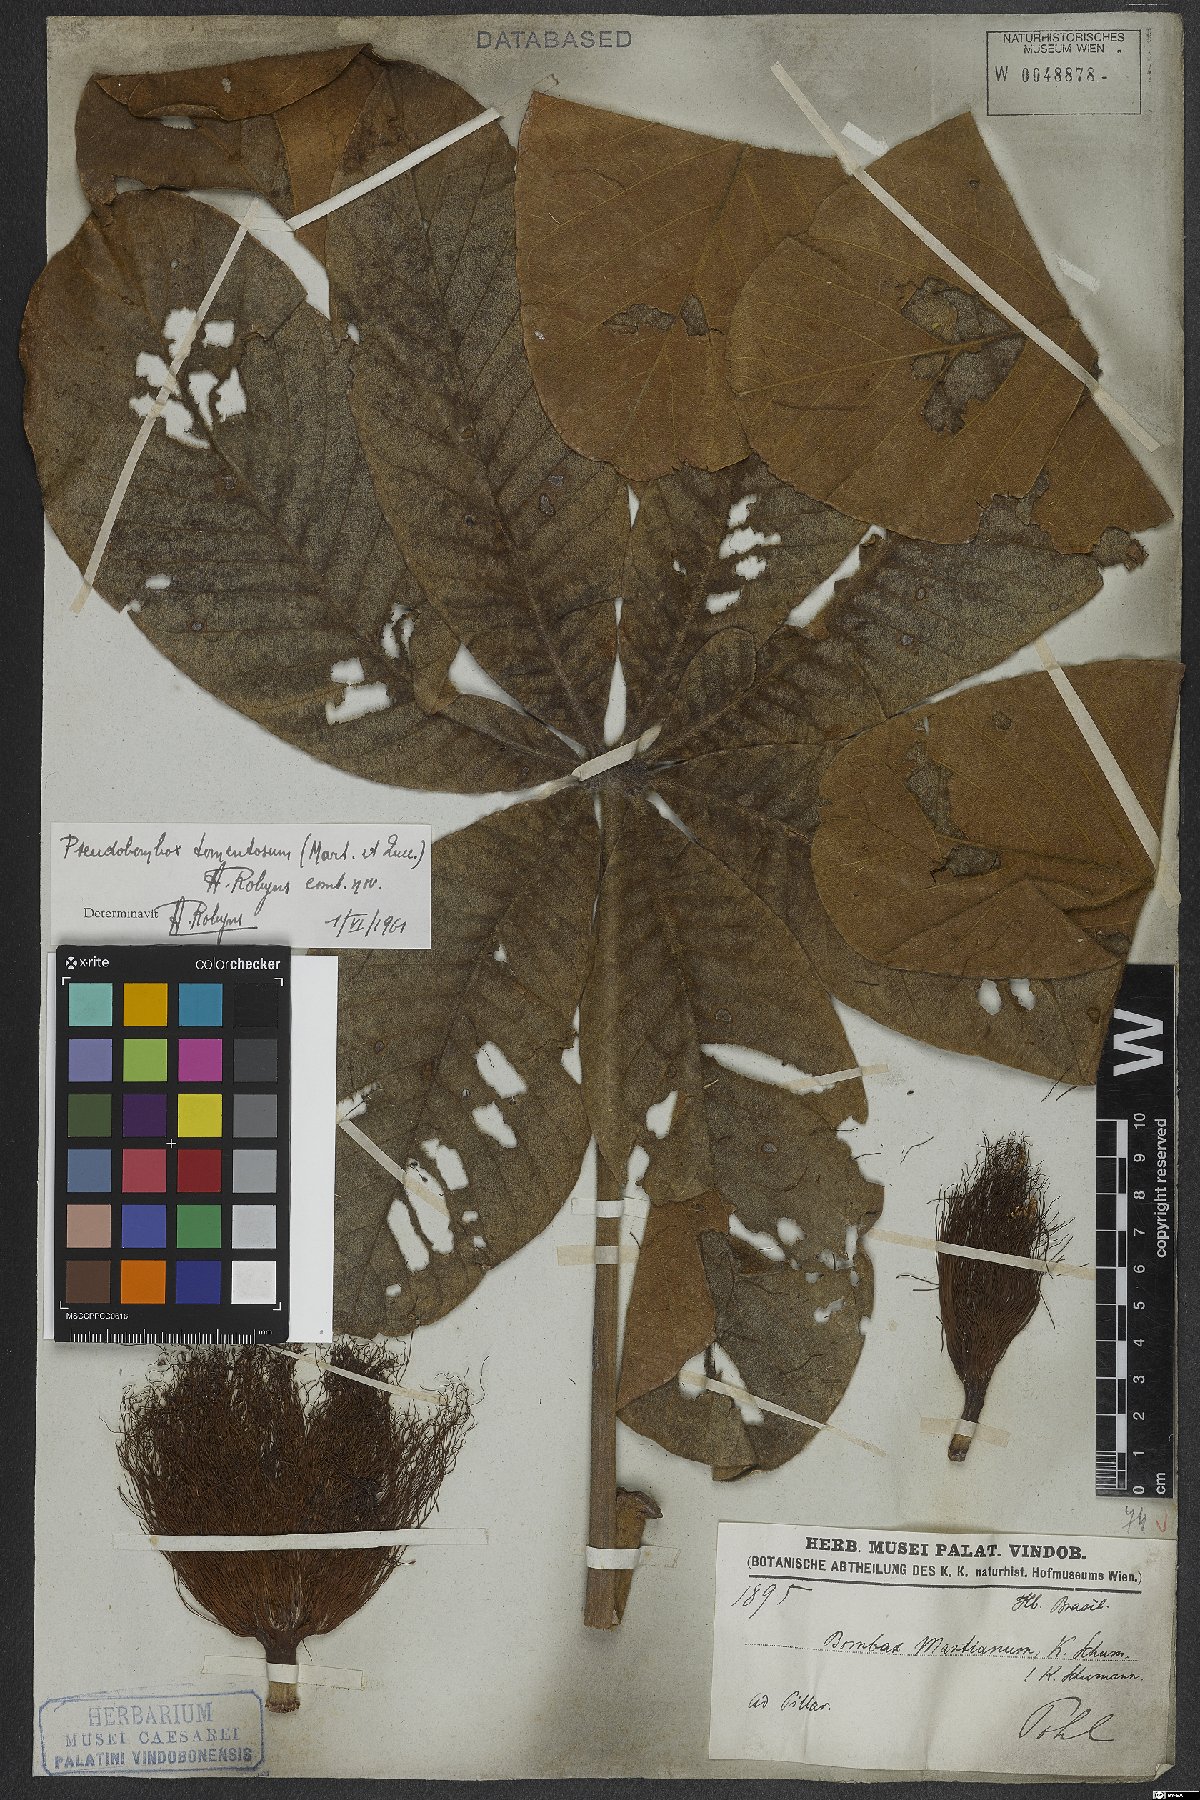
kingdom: Plantae
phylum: Tracheophyta
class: Magnoliopsida
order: Malvales
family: Malvaceae
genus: Pseudobombax
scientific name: Pseudobombax tomentosum
